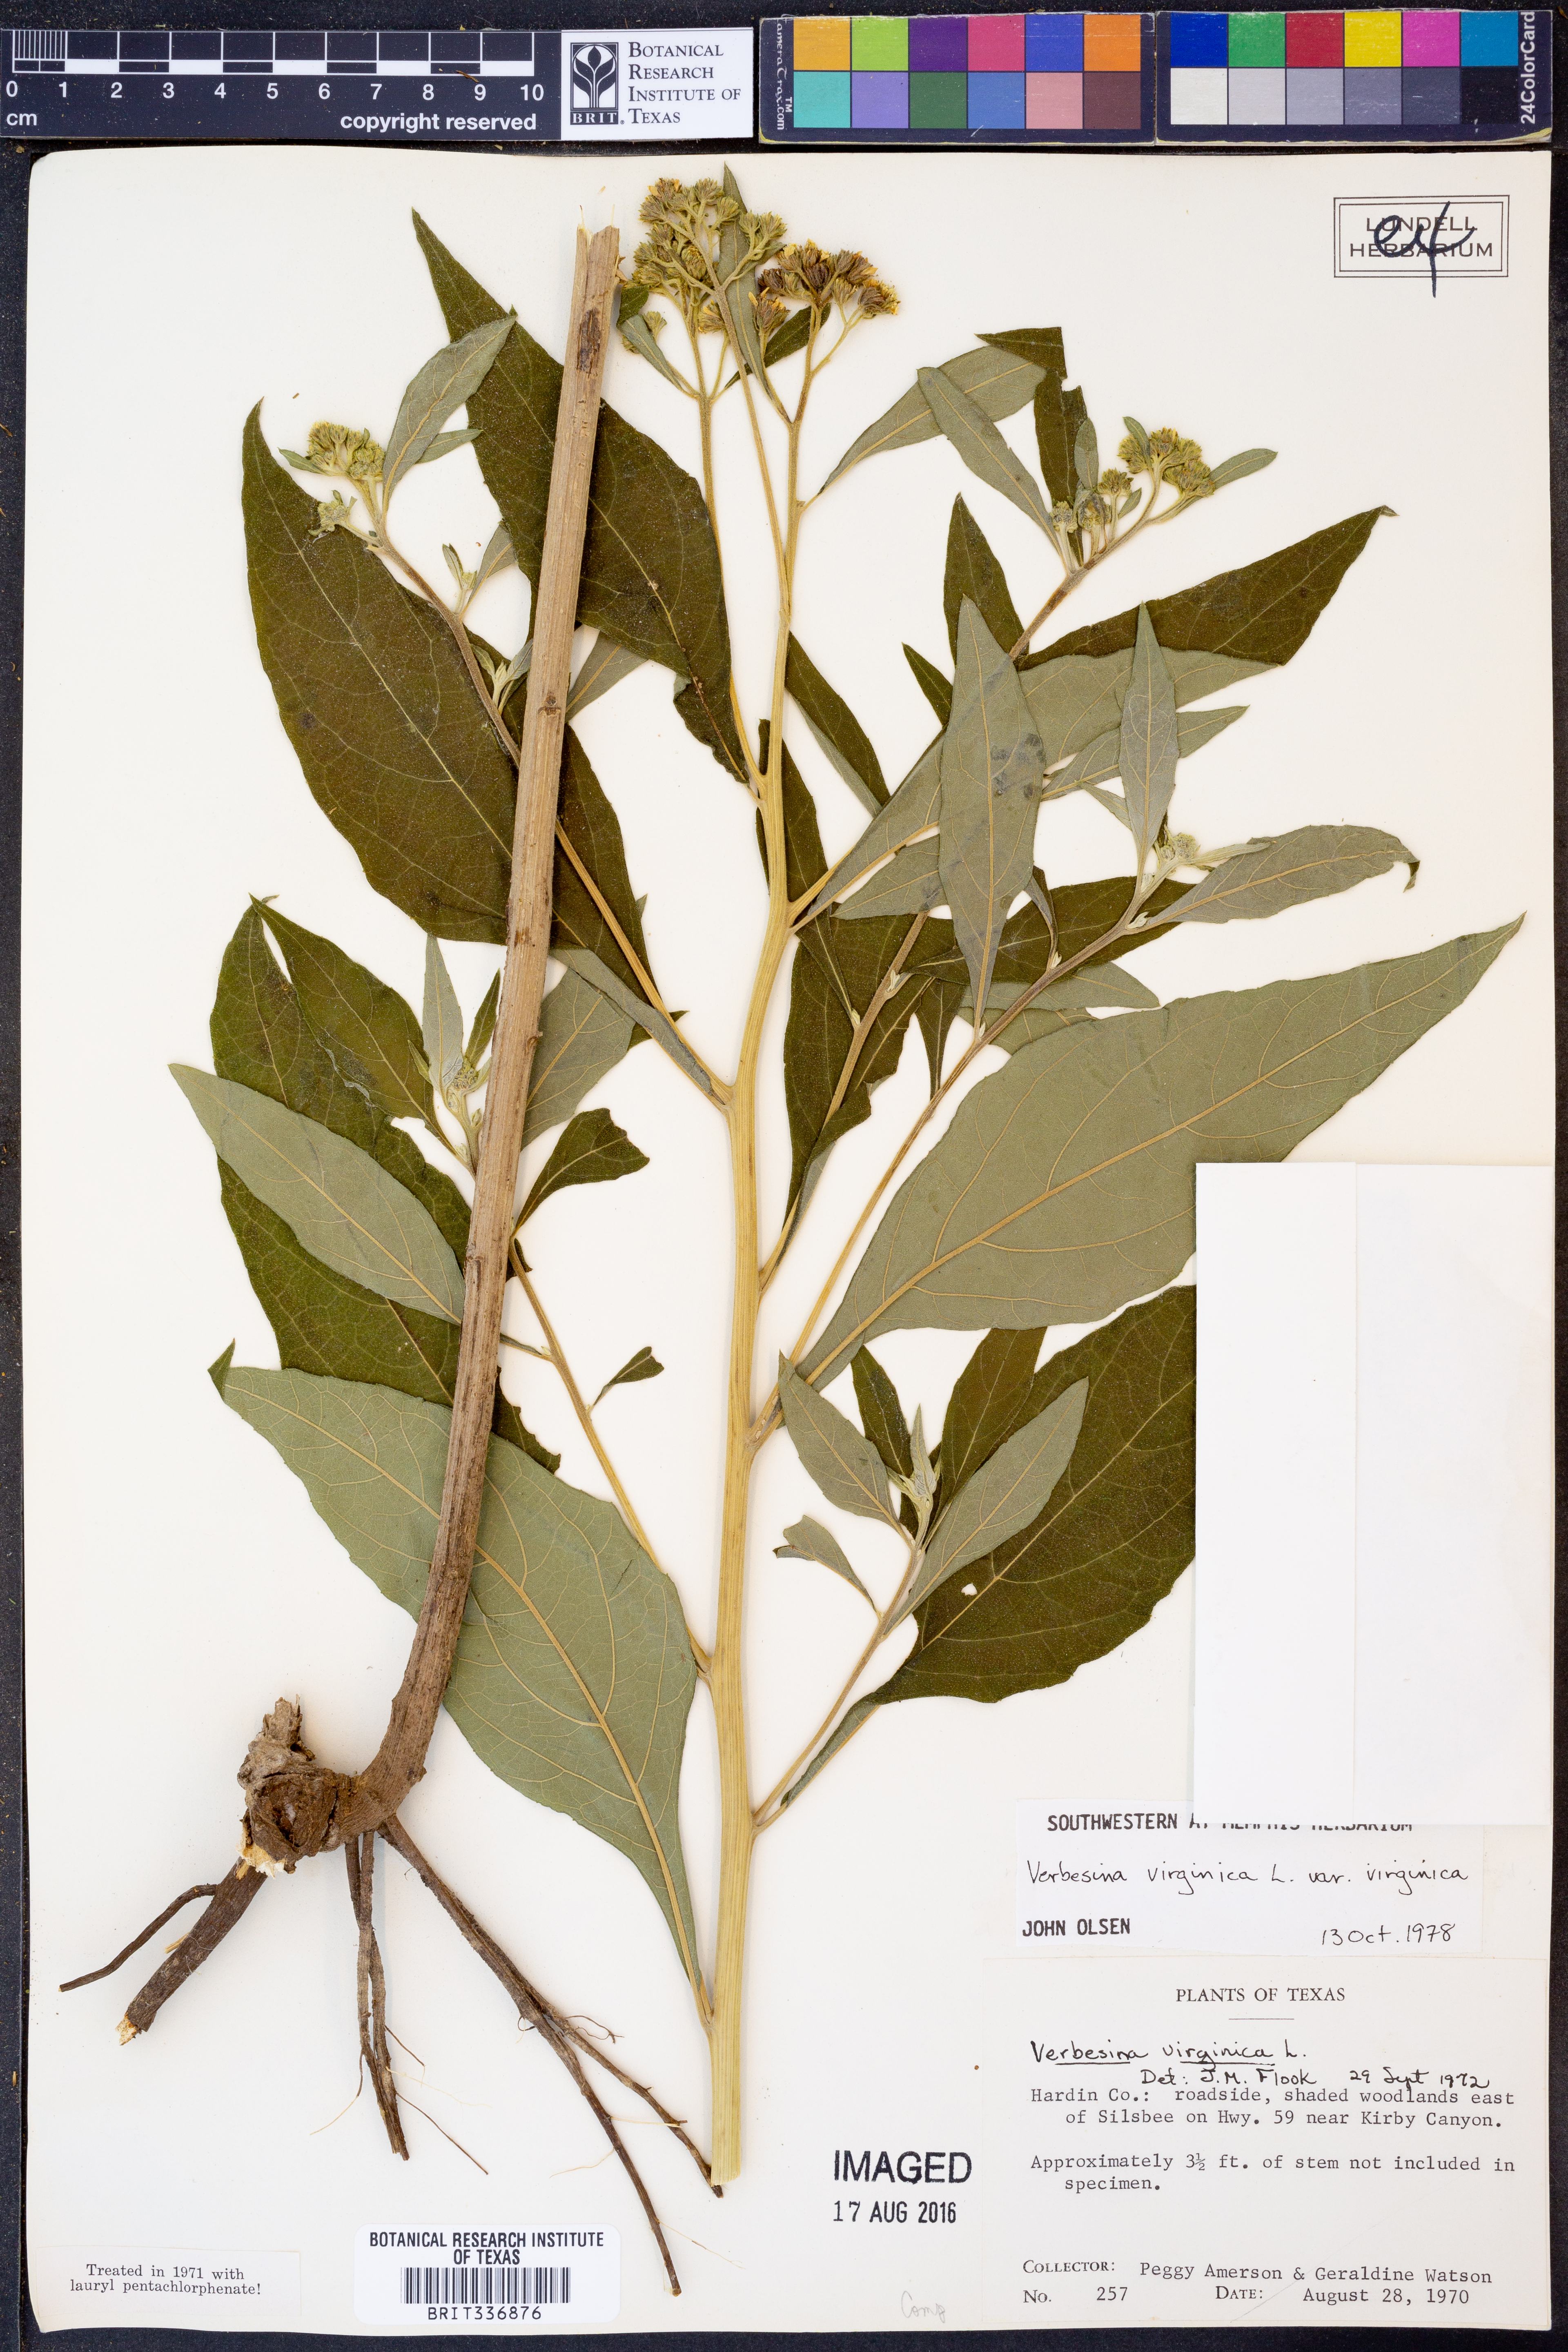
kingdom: Plantae
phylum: Tracheophyta
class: Magnoliopsida
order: Asterales
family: Asteraceae
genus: Verbesina
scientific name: Verbesina virginica
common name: Frostweed
